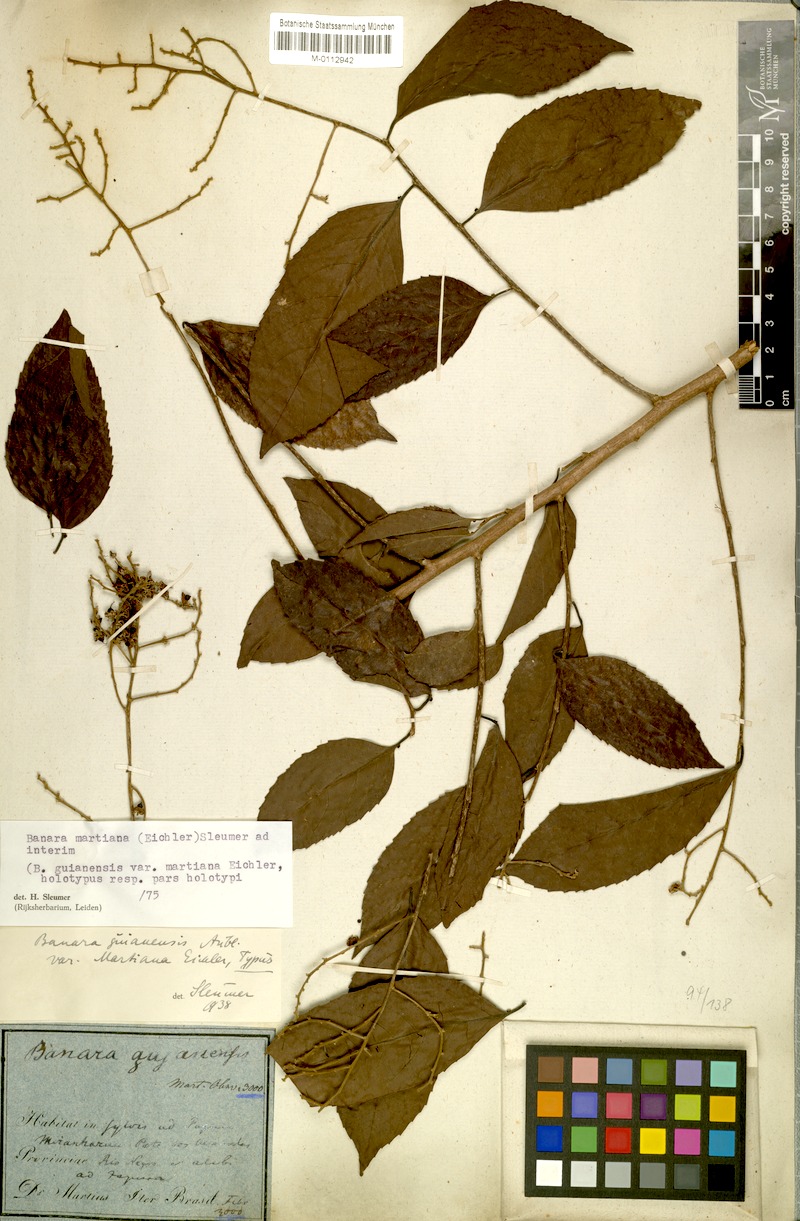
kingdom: Plantae
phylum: Tracheophyta
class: Magnoliopsida
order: Malpighiales
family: Salicaceae
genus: Banara
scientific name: Banara arguta
